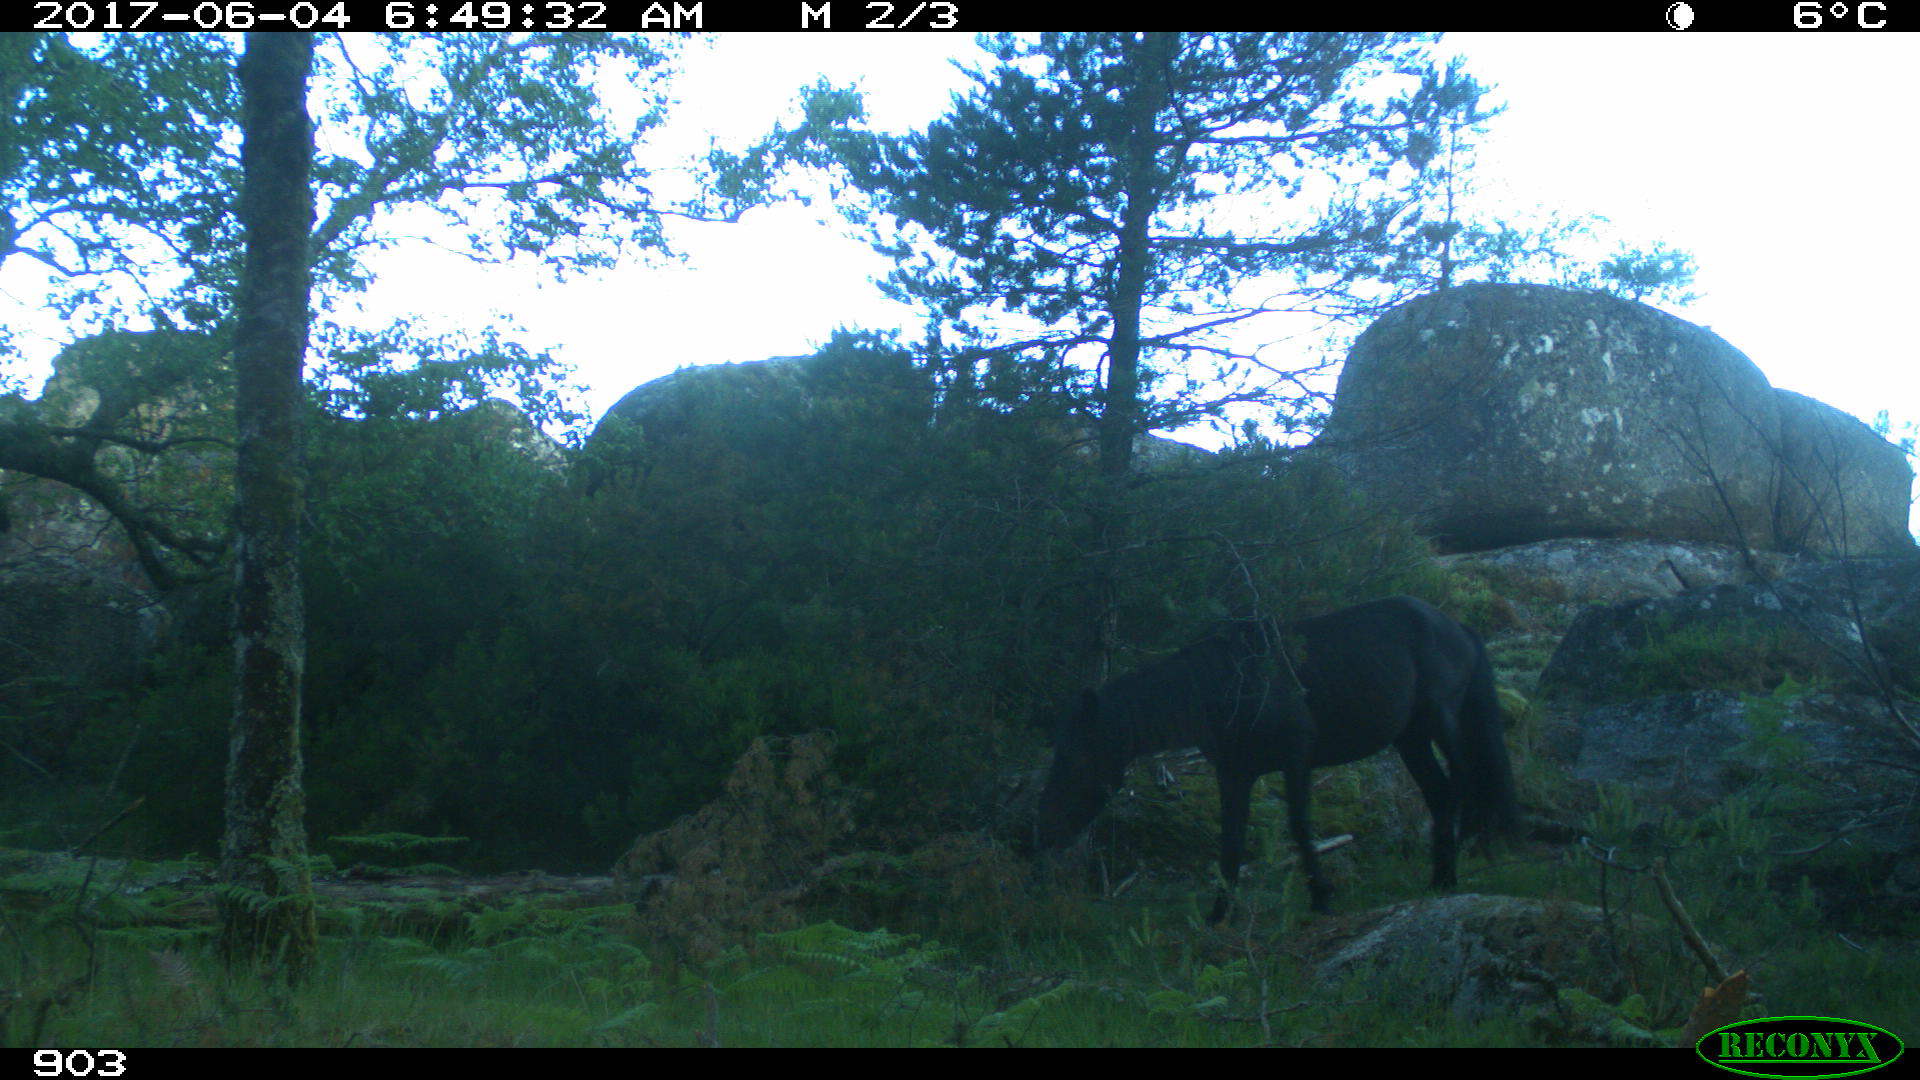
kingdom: Animalia
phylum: Chordata
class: Mammalia
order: Perissodactyla
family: Equidae
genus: Equus
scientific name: Equus caballus
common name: Horse
